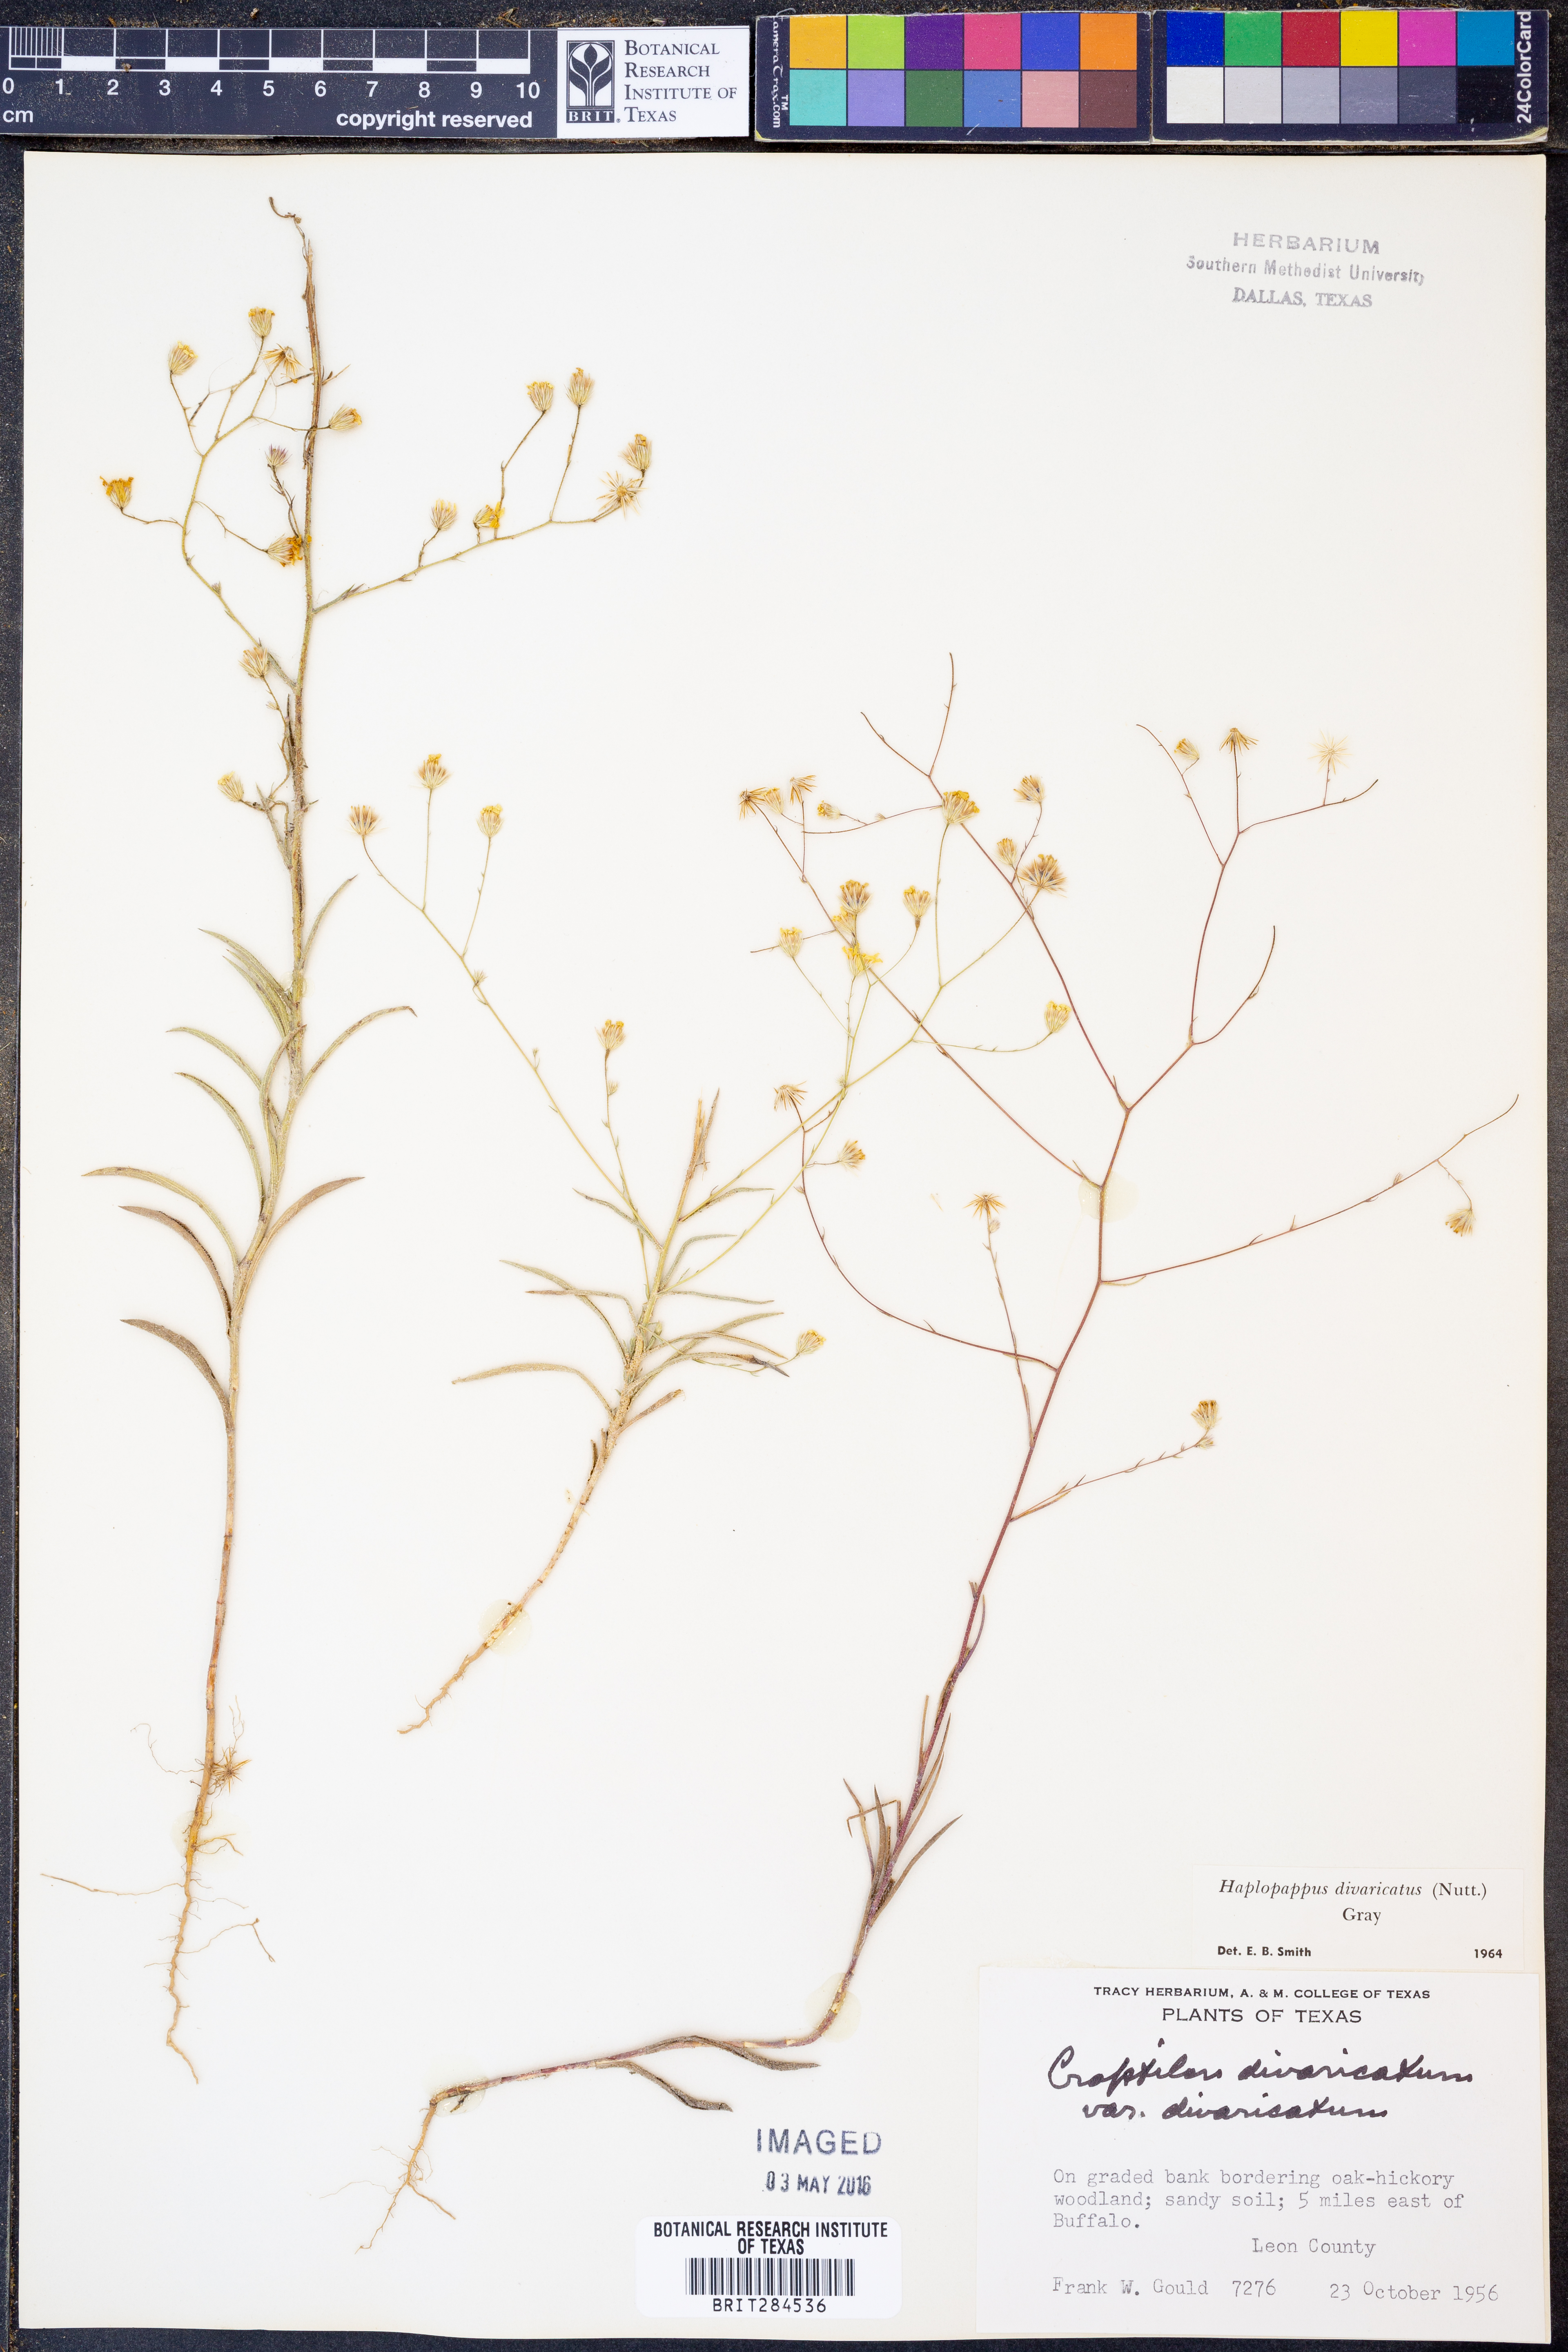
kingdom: Plantae
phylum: Tracheophyta
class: Magnoliopsida
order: Asterales
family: Asteraceae
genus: Croptilon
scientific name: Croptilon divaricatum
